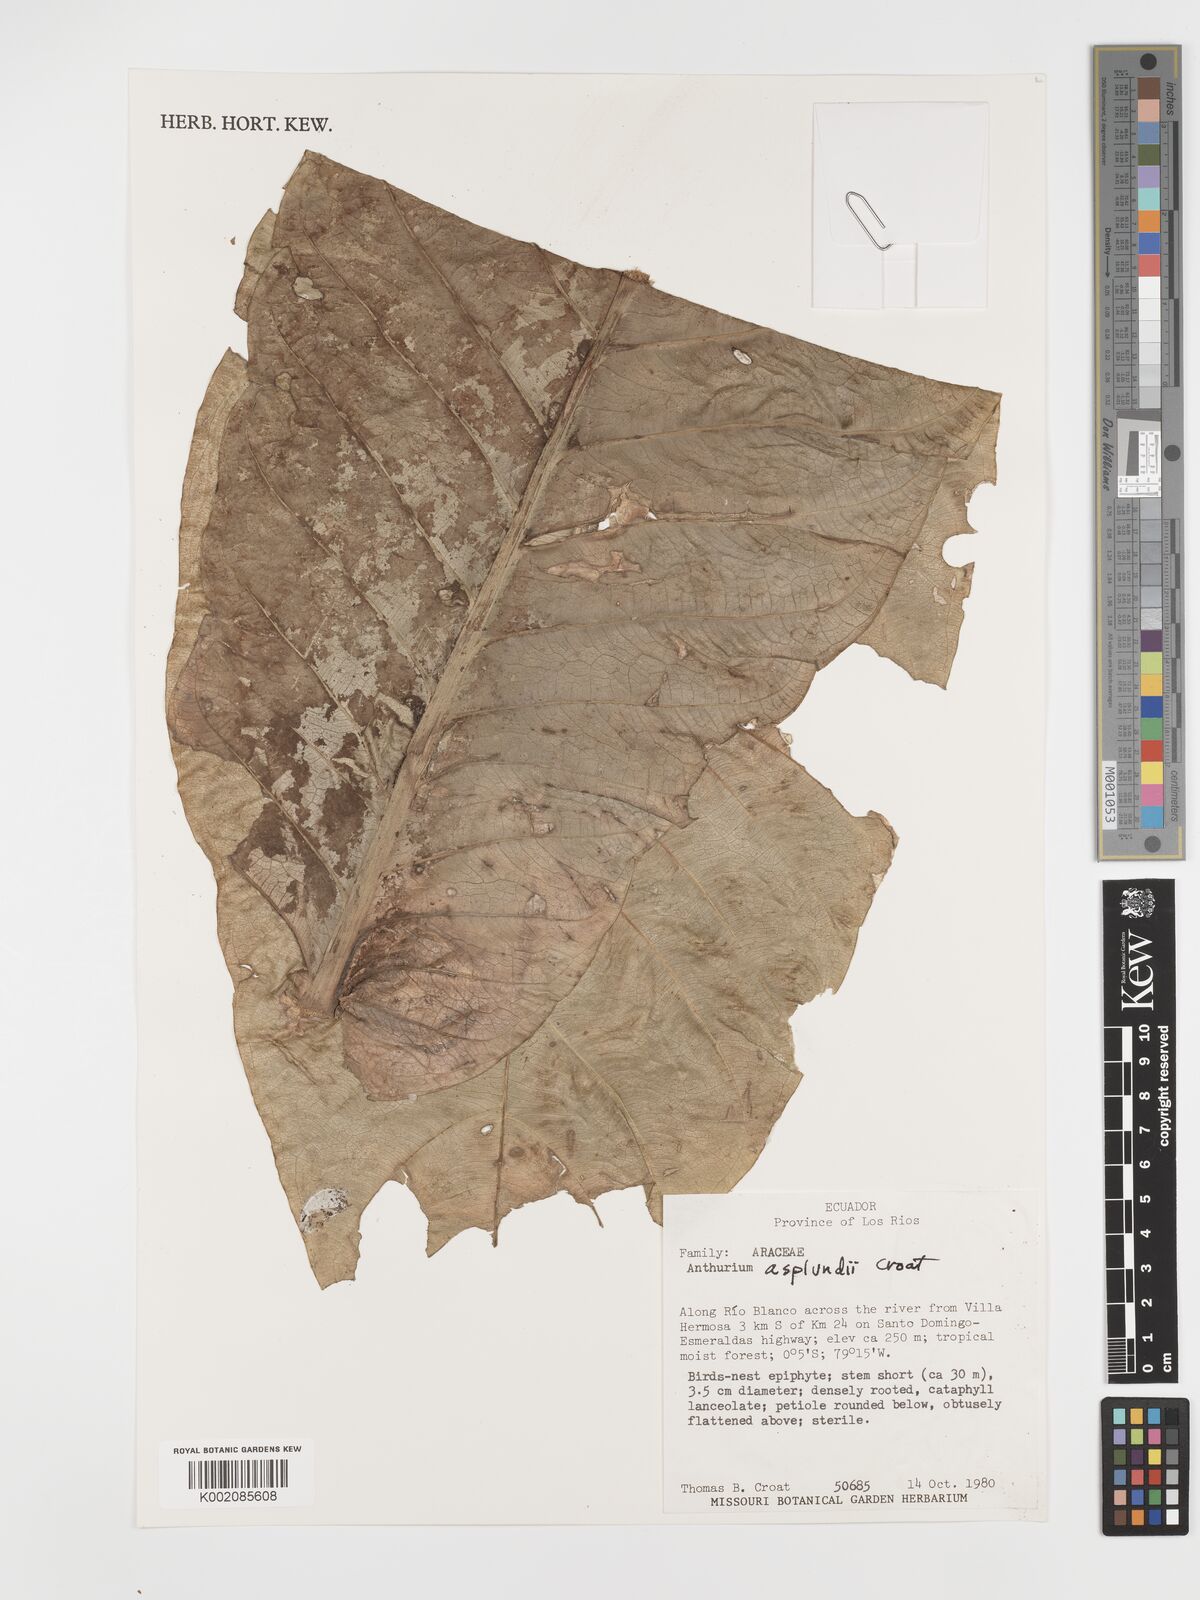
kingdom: Plantae
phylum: Tracheophyta
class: Liliopsida
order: Alismatales
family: Araceae
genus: Anthurium
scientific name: Anthurium asplundii
